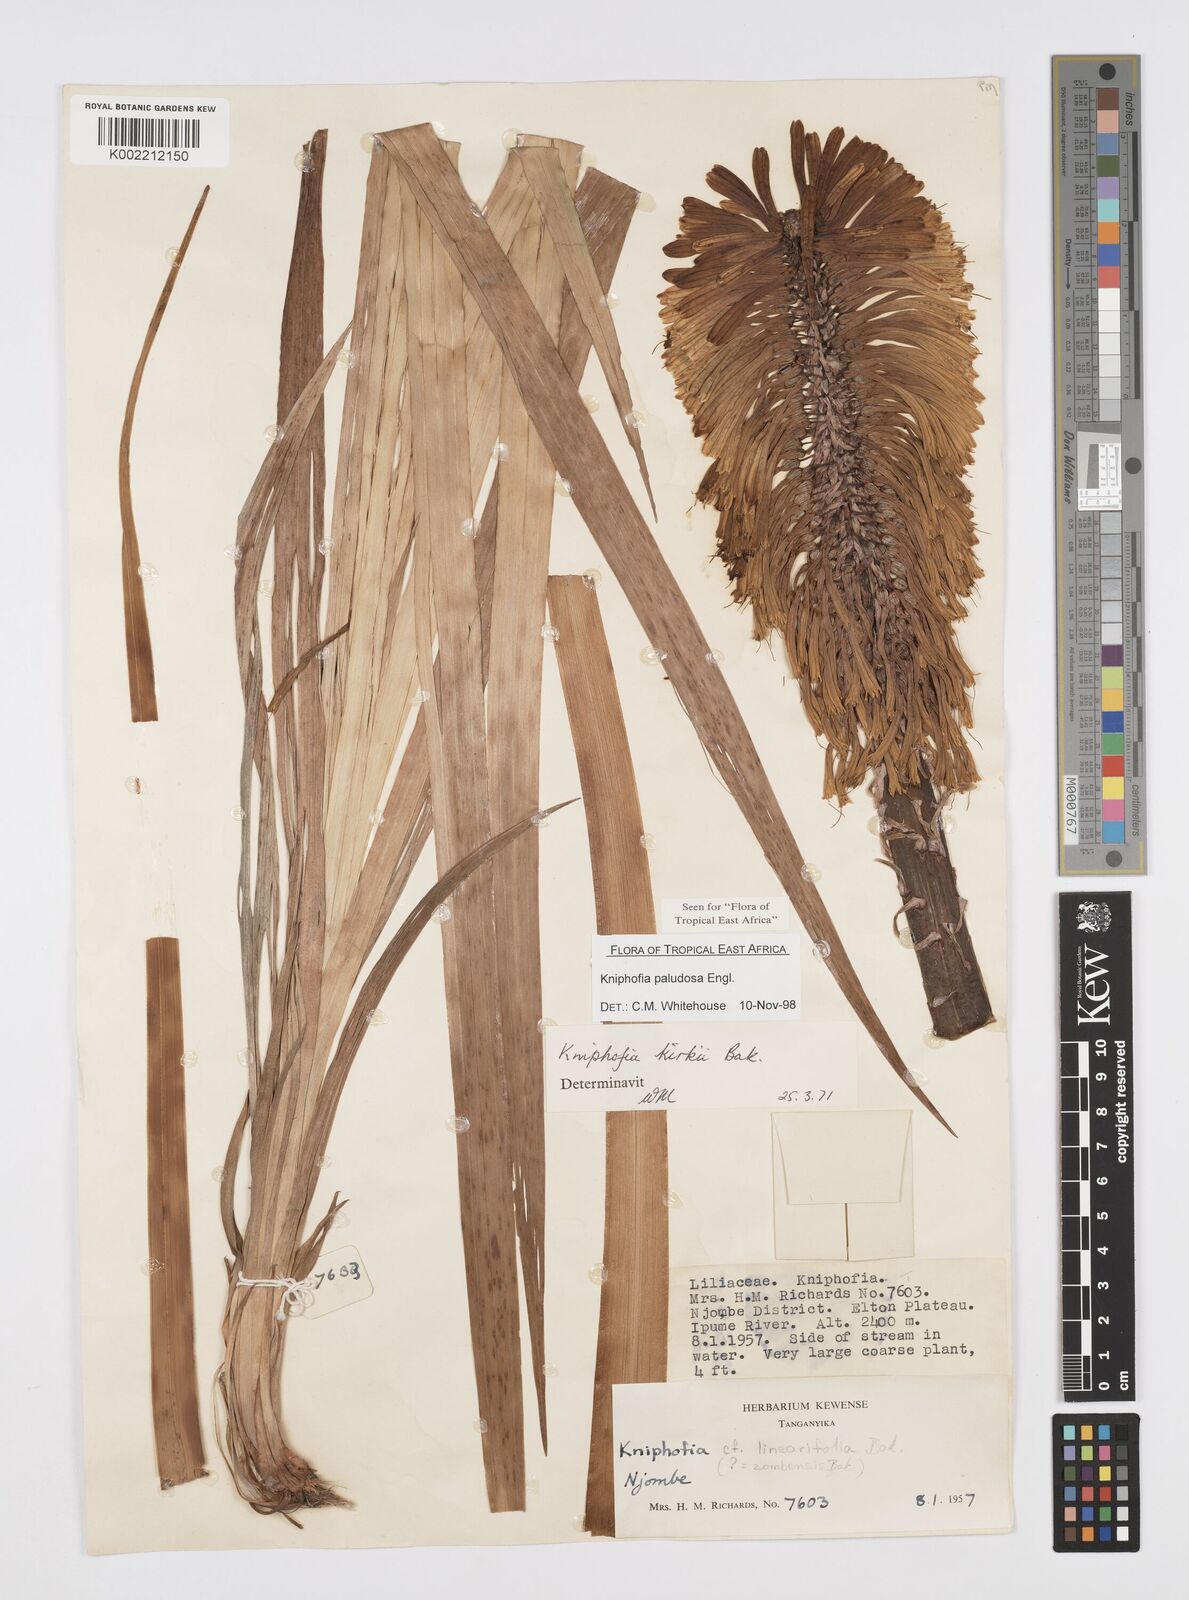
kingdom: Plantae
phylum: Tracheophyta
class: Liliopsida
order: Asparagales
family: Asphodelaceae
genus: Kniphofia
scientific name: Kniphofia paludosa
